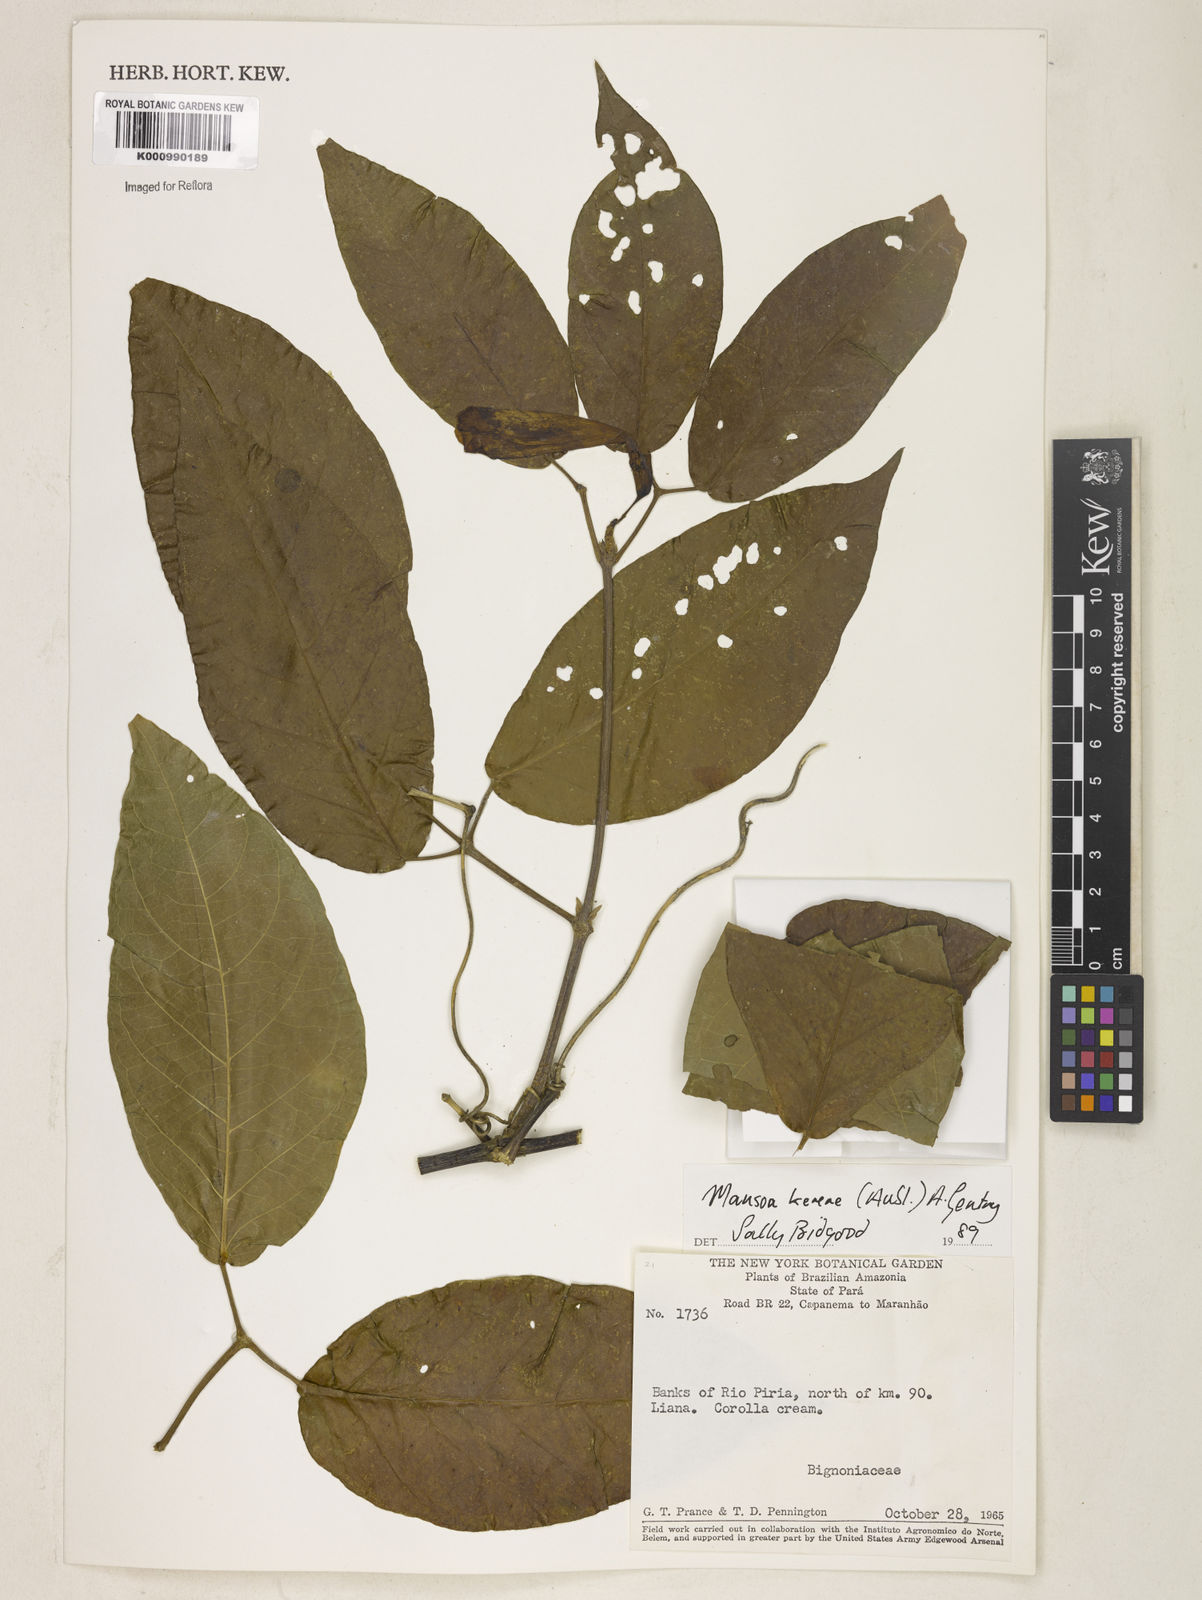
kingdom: Plantae
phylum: Tracheophyta
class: Magnoliopsida
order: Lamiales
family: Bignoniaceae
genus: Pachyptera
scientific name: Pachyptera kerere
